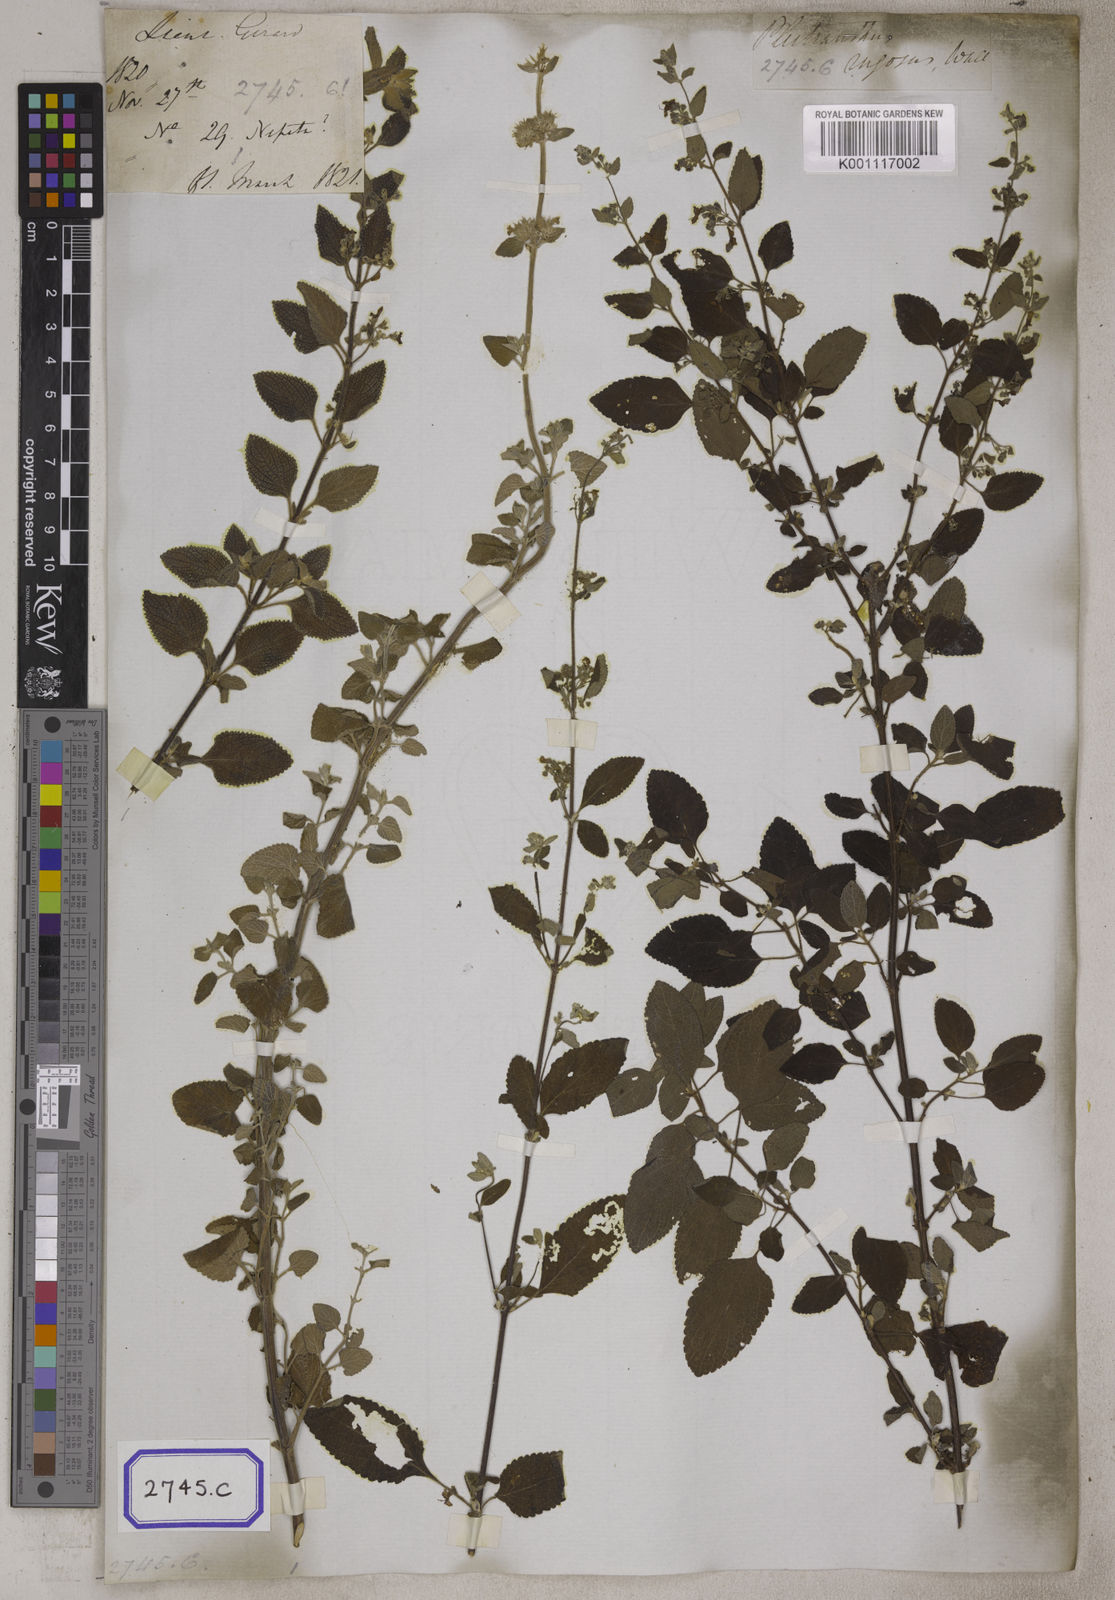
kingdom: Plantae
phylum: Tracheophyta
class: Magnoliopsida
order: Lamiales
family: Lamiaceae
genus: Plectranthus
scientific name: Plectranthus
